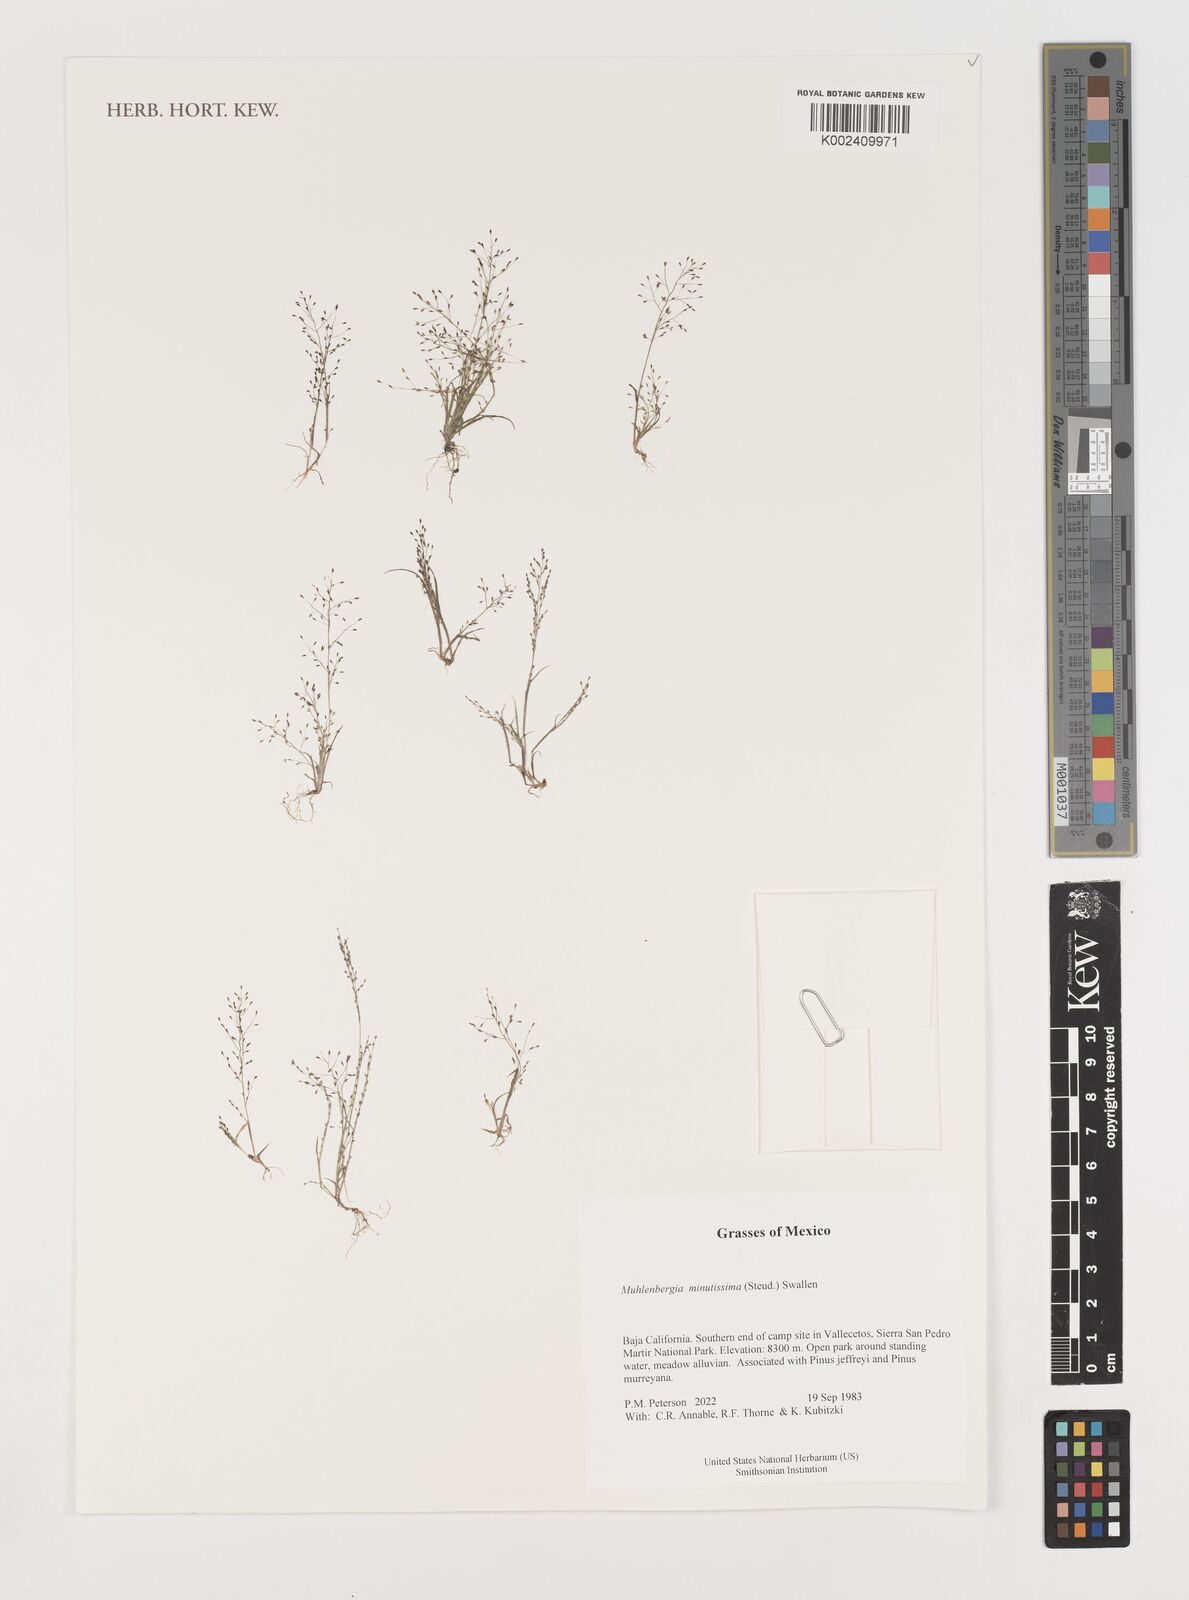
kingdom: Plantae
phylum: Tracheophyta
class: Liliopsida
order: Poales
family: Poaceae
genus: Muhlenbergia
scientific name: Muhlenbergia minutissima
